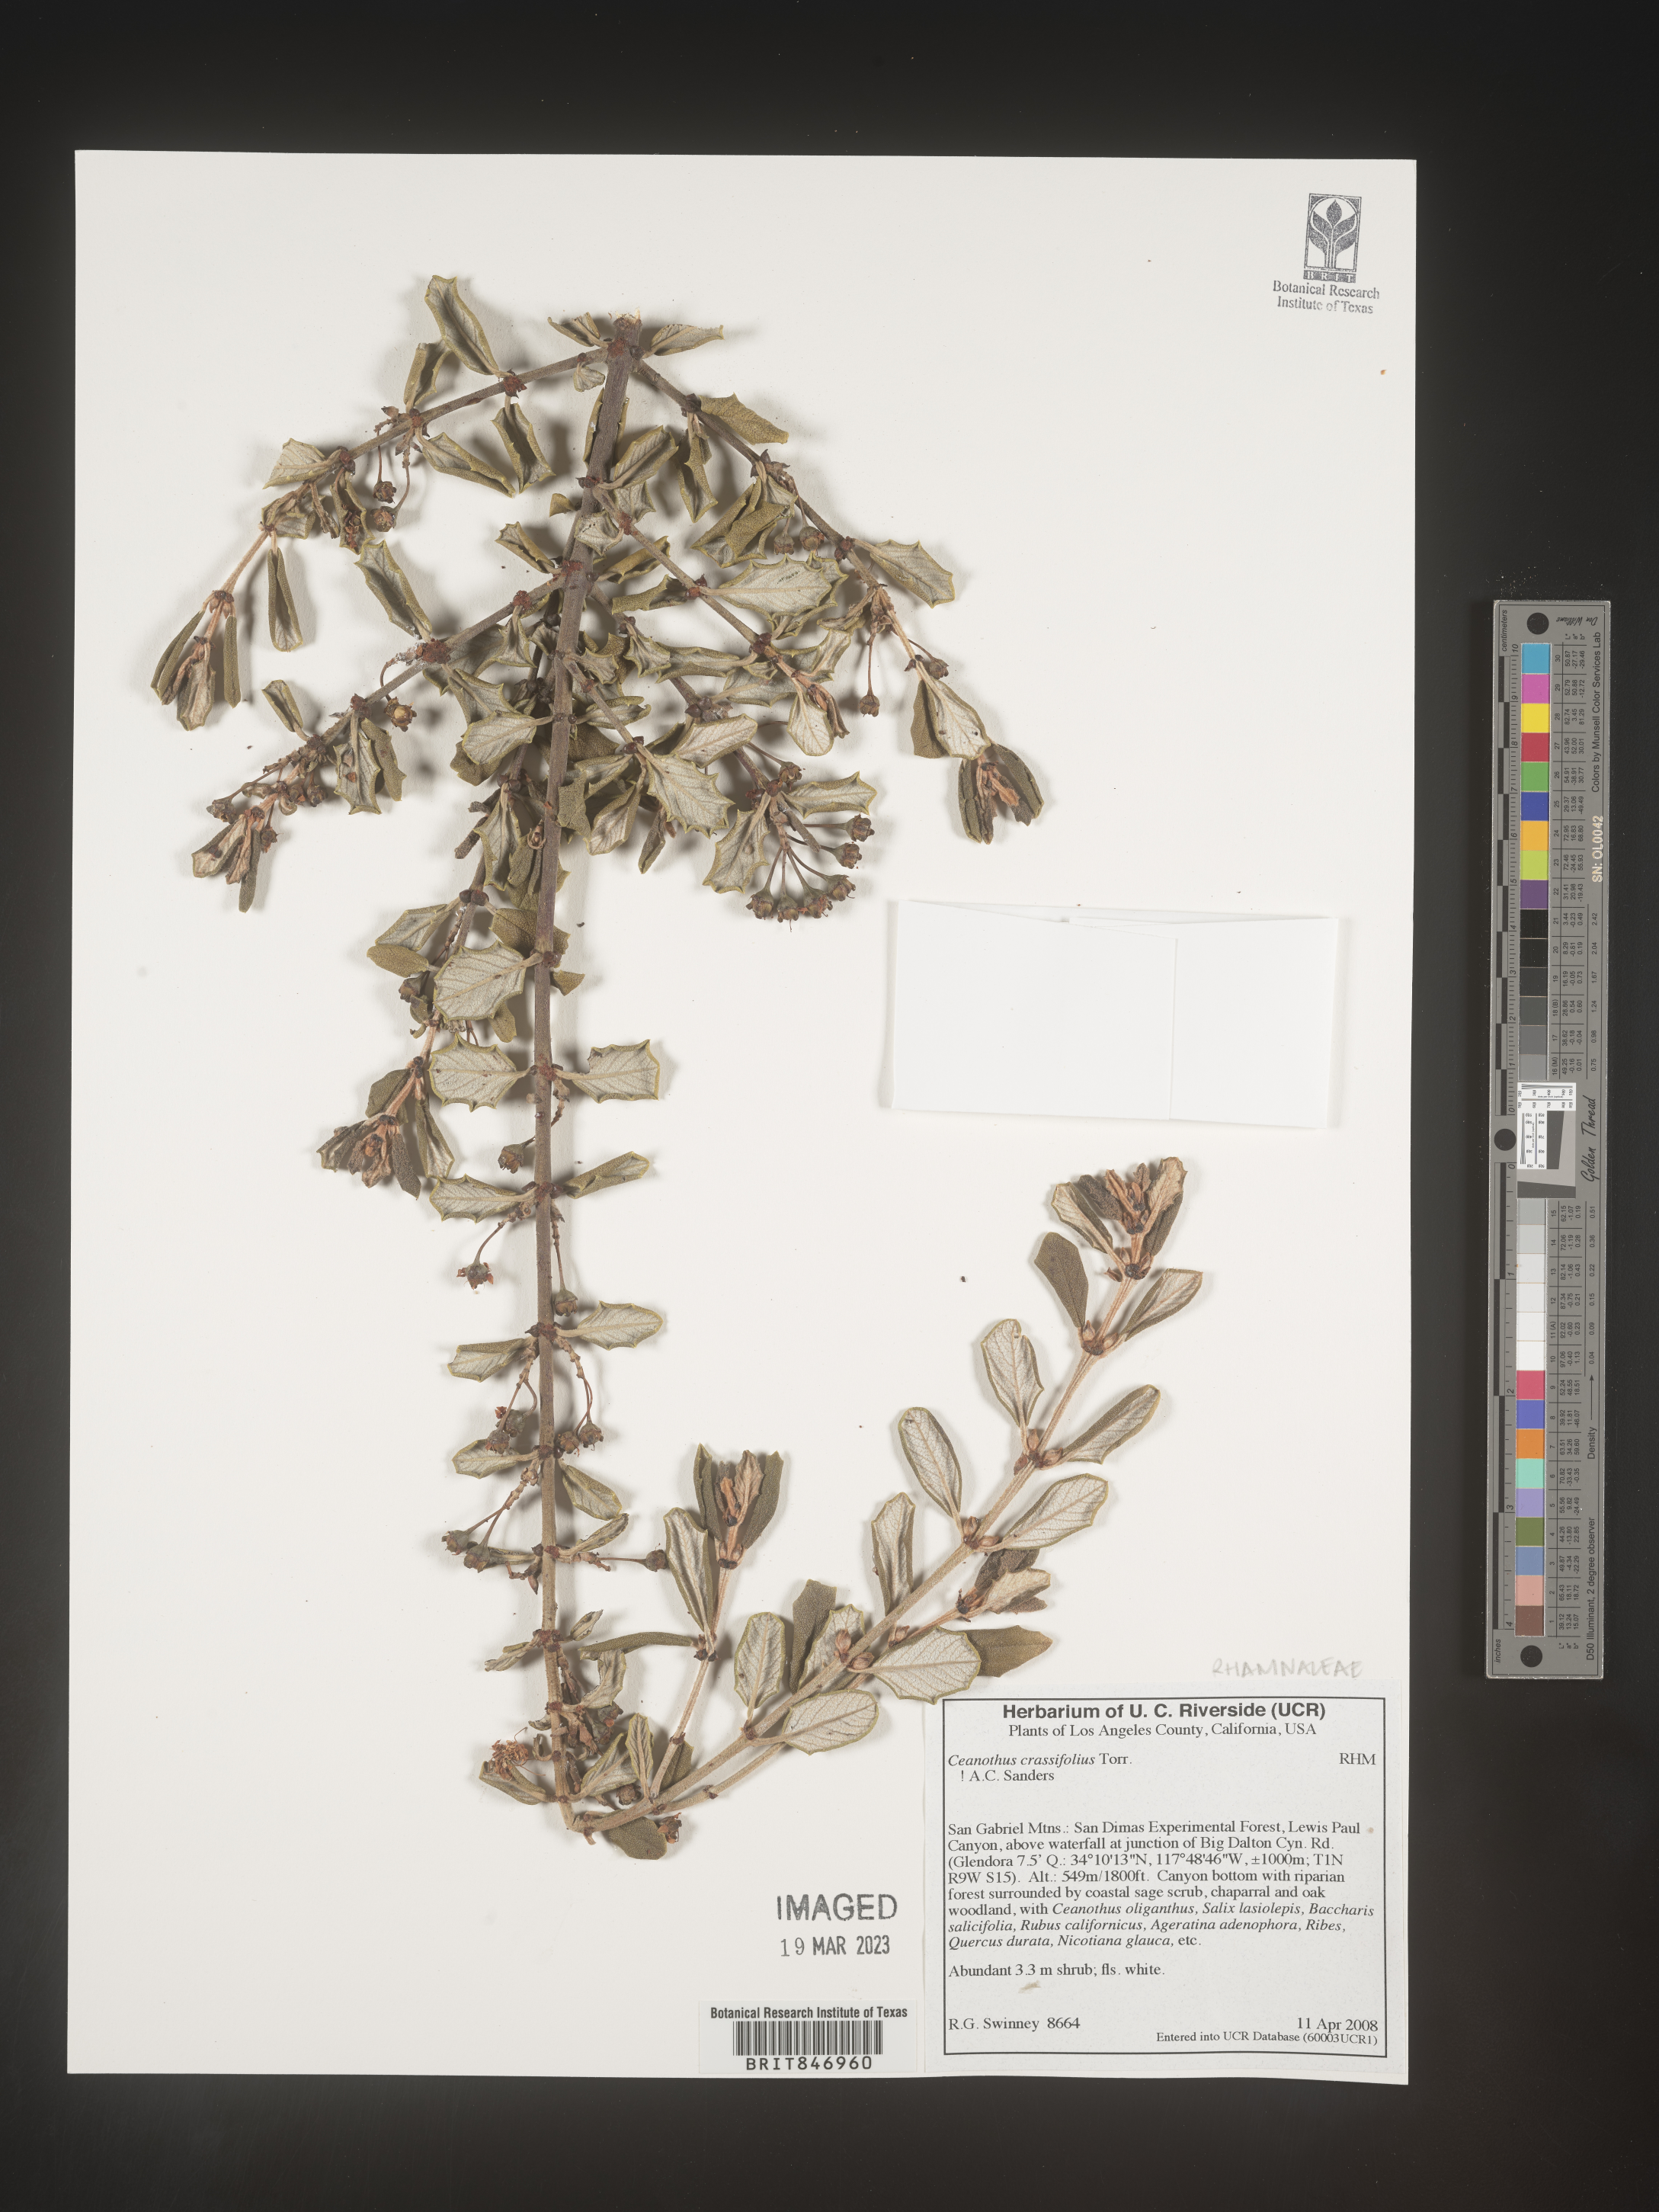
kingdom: Plantae
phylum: Tracheophyta
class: Magnoliopsida
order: Rosales
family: Rhamnaceae
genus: Ceanothus
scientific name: Ceanothus crassifolius
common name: Hoaryleaf ceanothus
